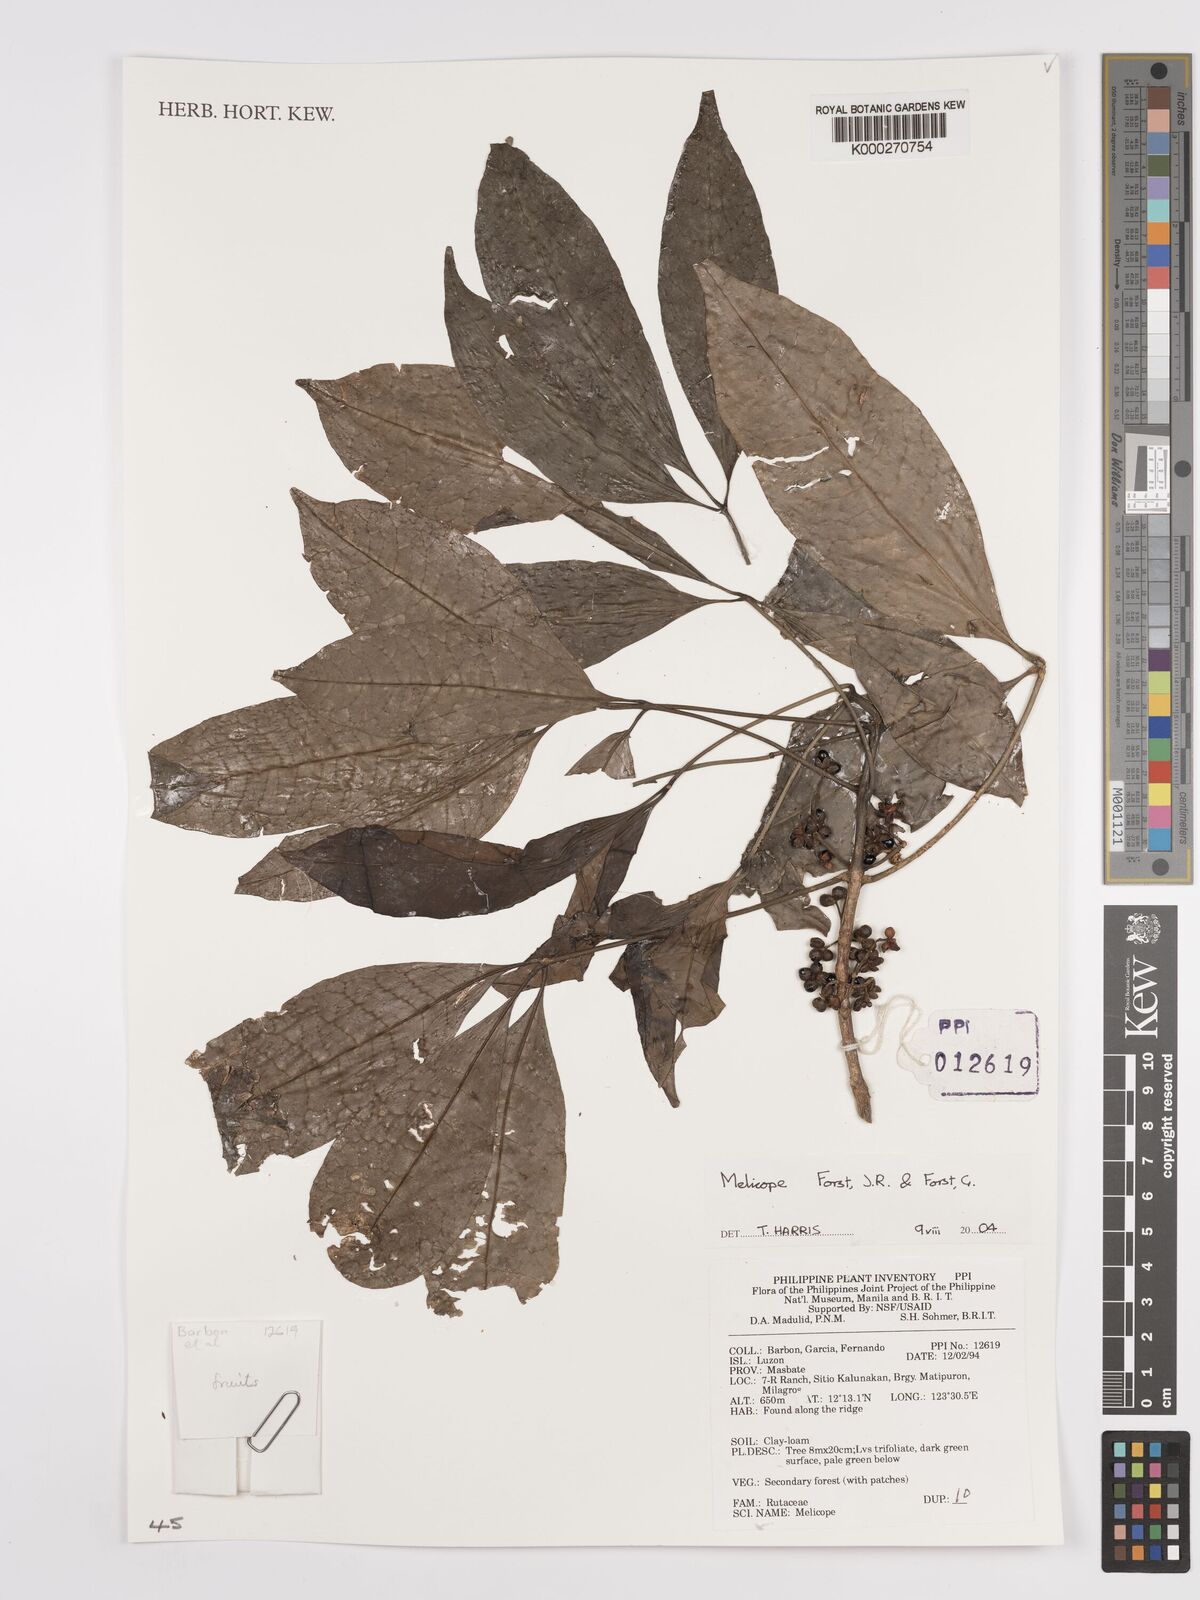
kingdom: Plantae
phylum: Tracheophyta
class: Magnoliopsida
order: Sapindales
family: Rutaceae
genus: Melicope
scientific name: Melicope
